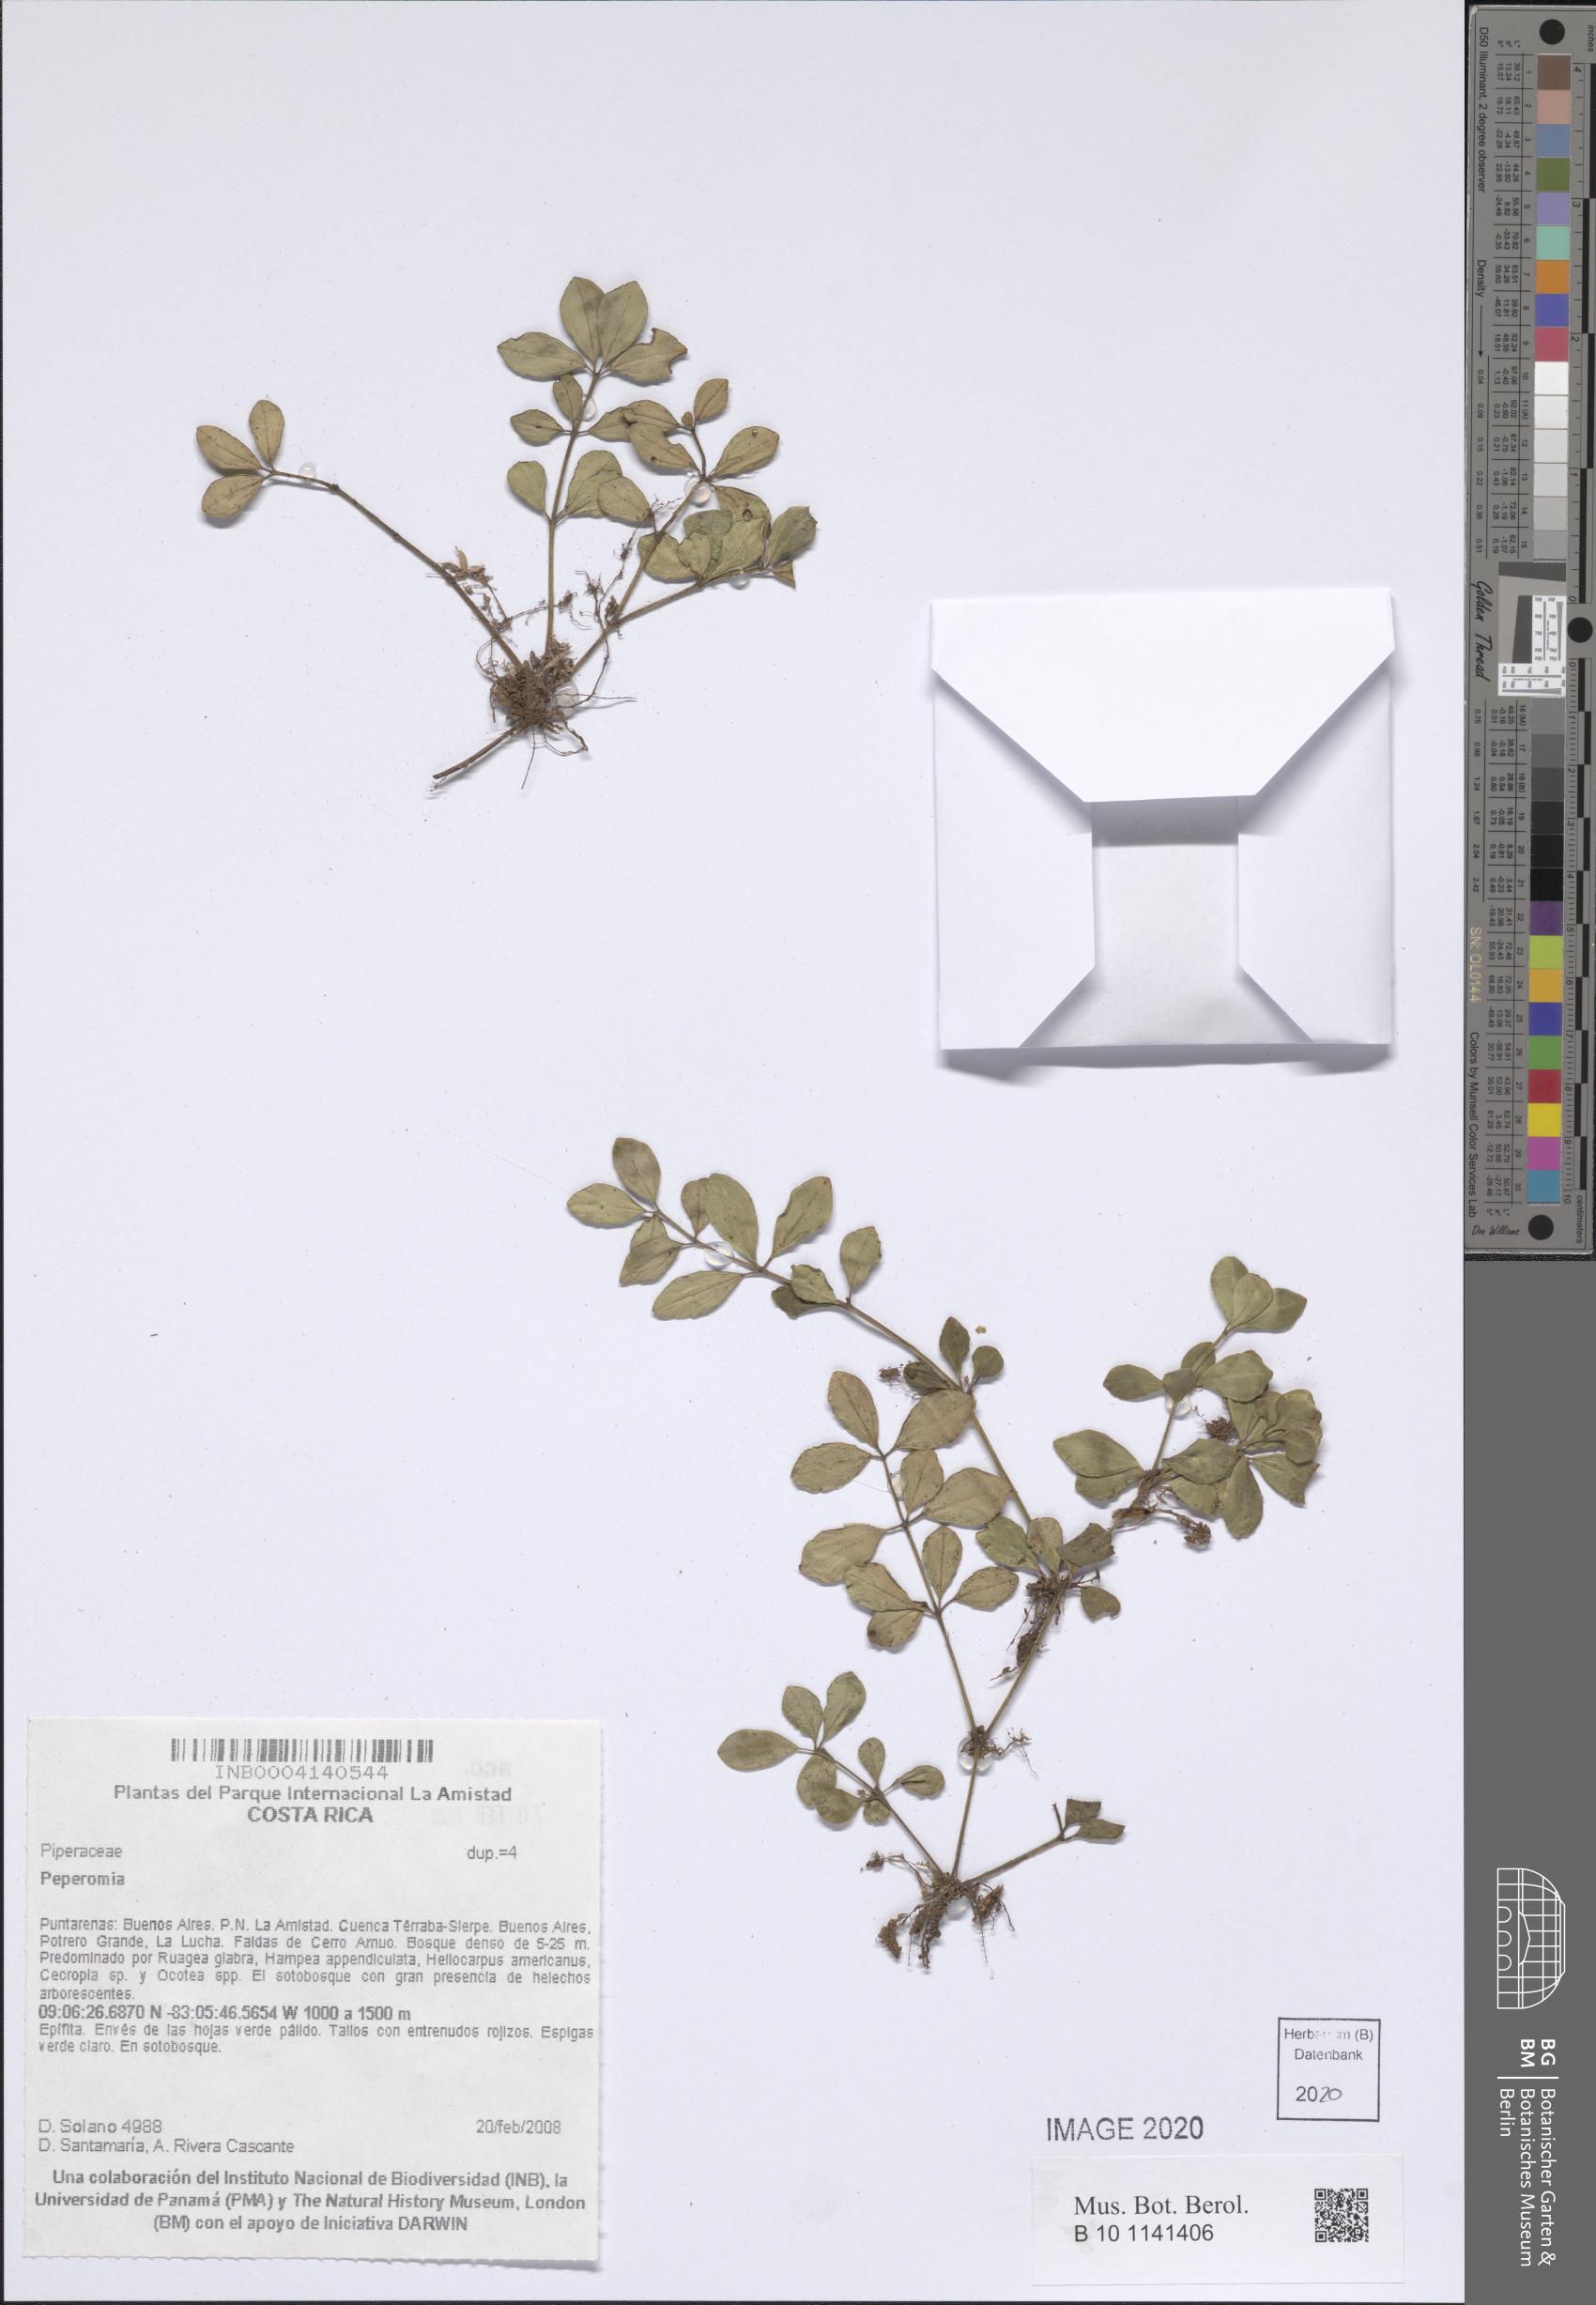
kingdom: Plantae
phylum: Tracheophyta
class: Magnoliopsida
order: Piperales
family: Piperaceae
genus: Peperomia
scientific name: Peperomia
